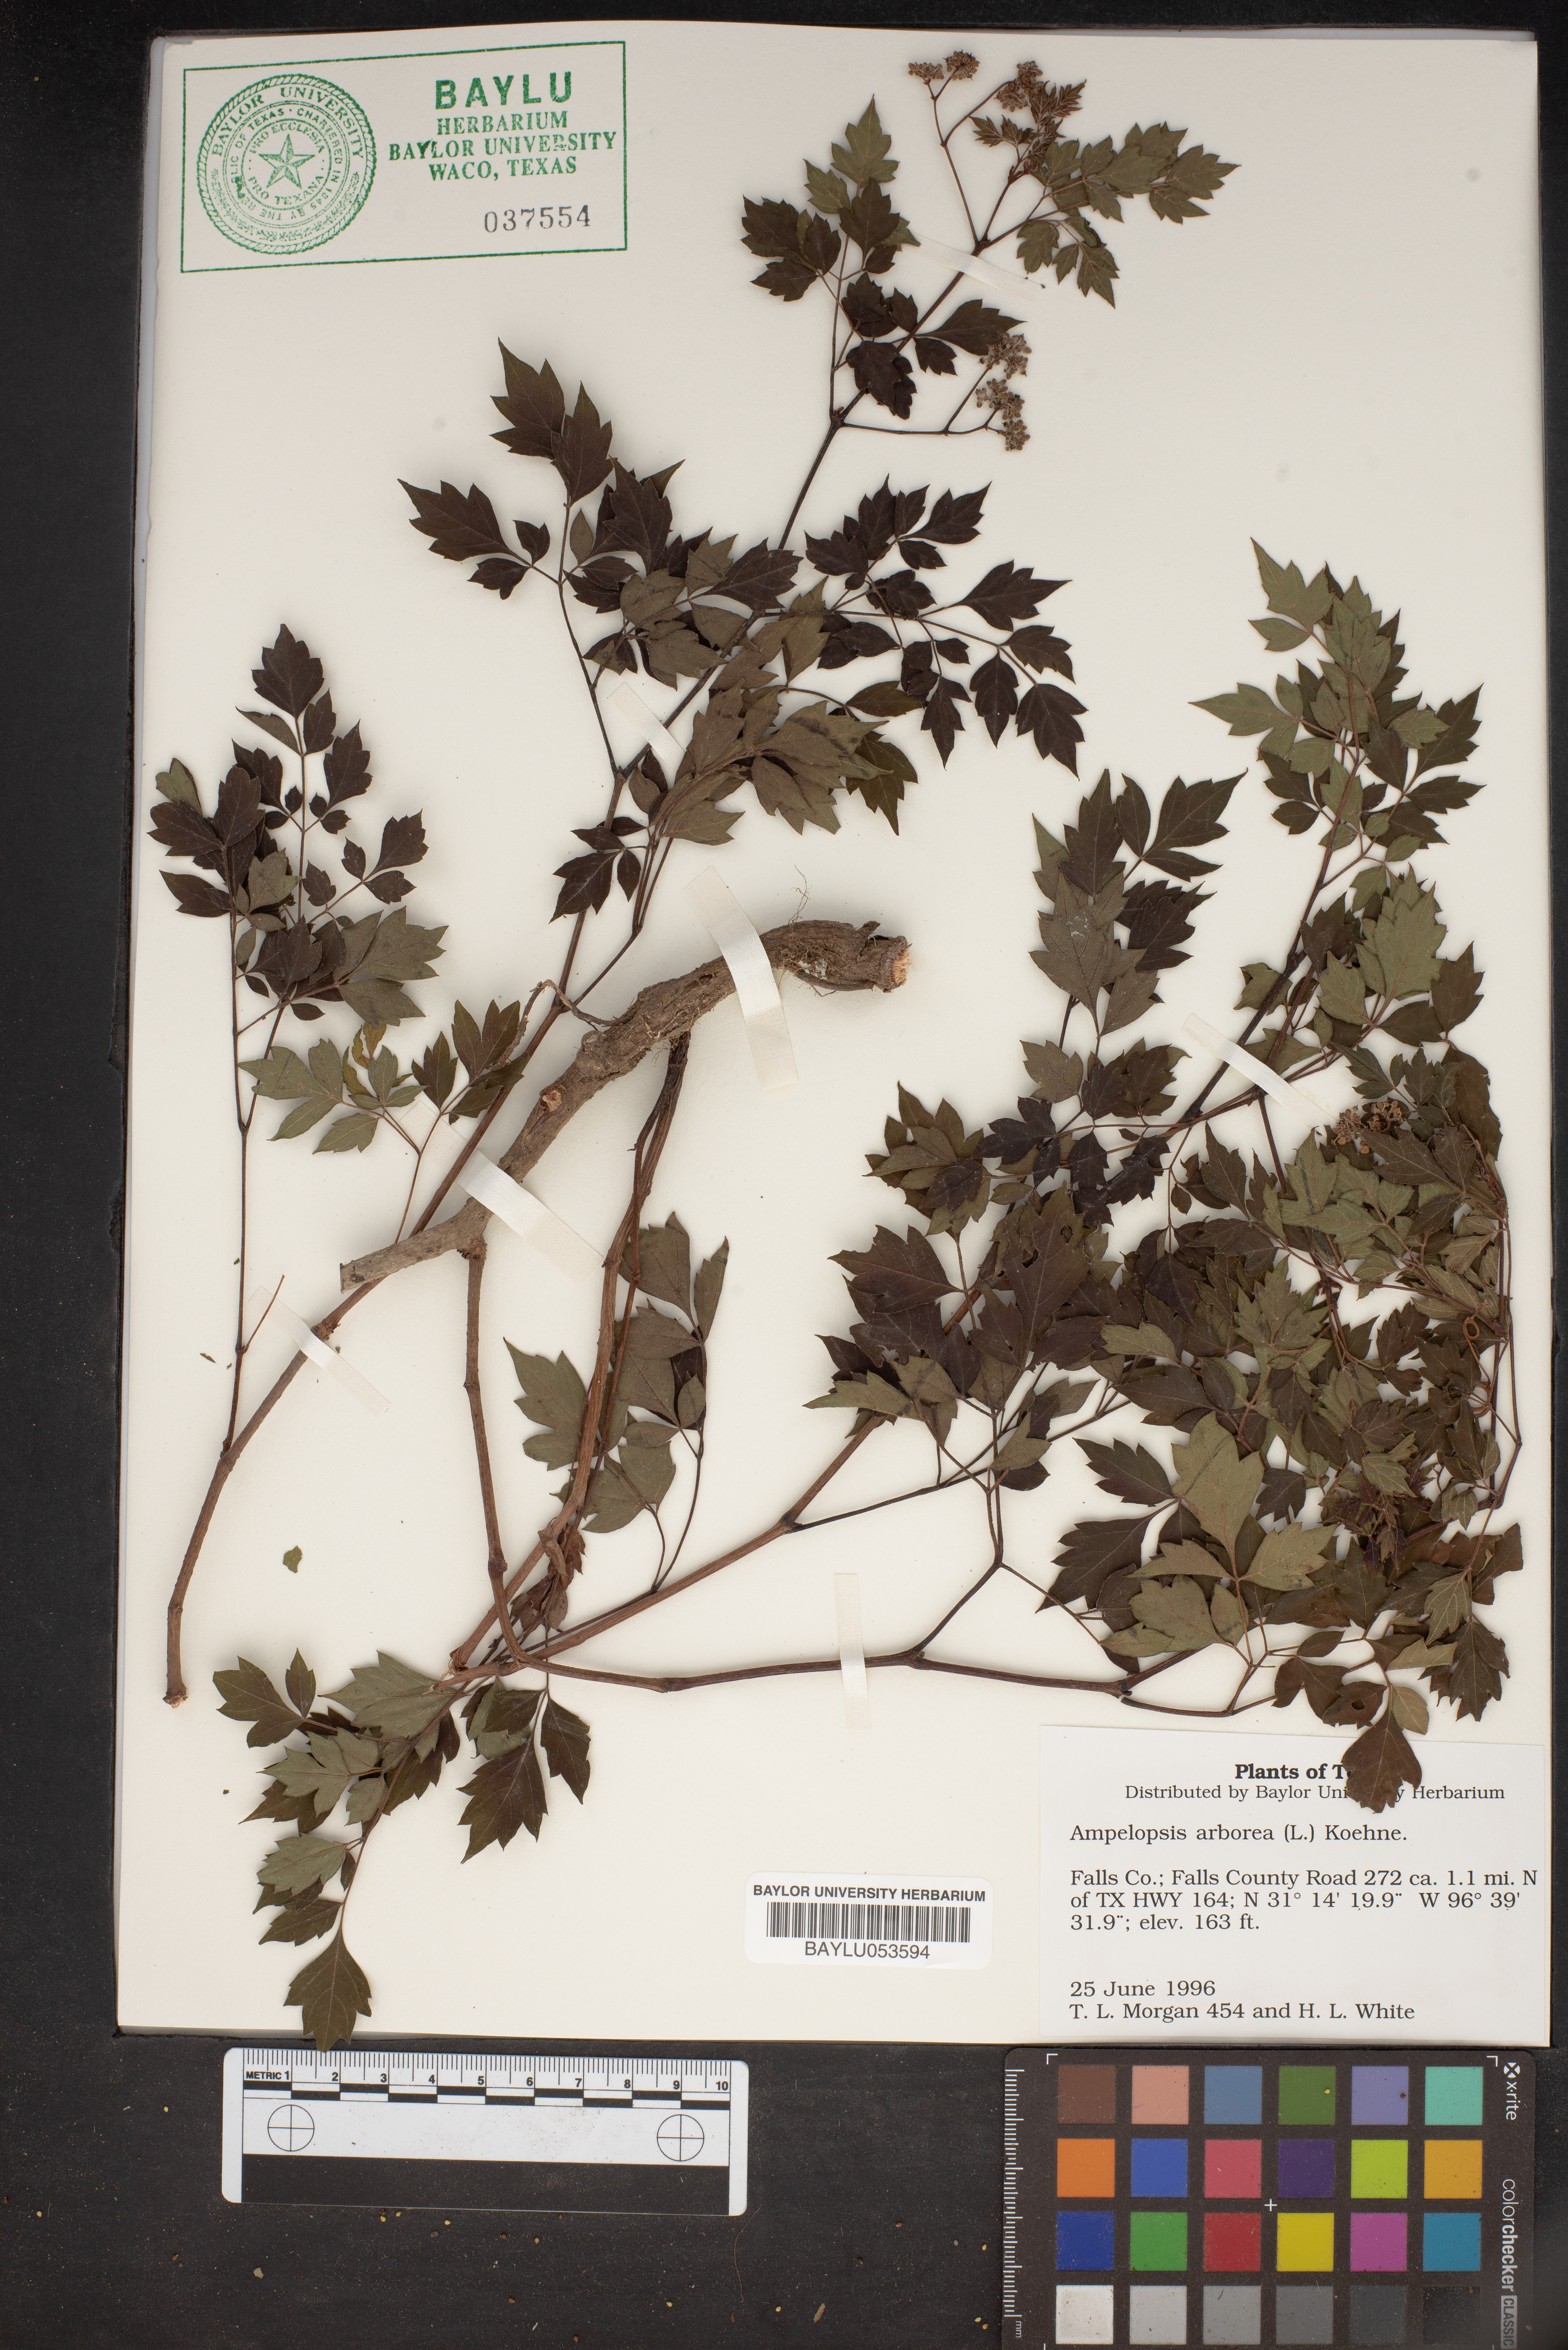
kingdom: Plantae
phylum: Tracheophyta
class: Magnoliopsida
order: Vitales
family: Vitaceae
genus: Nekemias
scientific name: Nekemias arborea
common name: Peppervine
